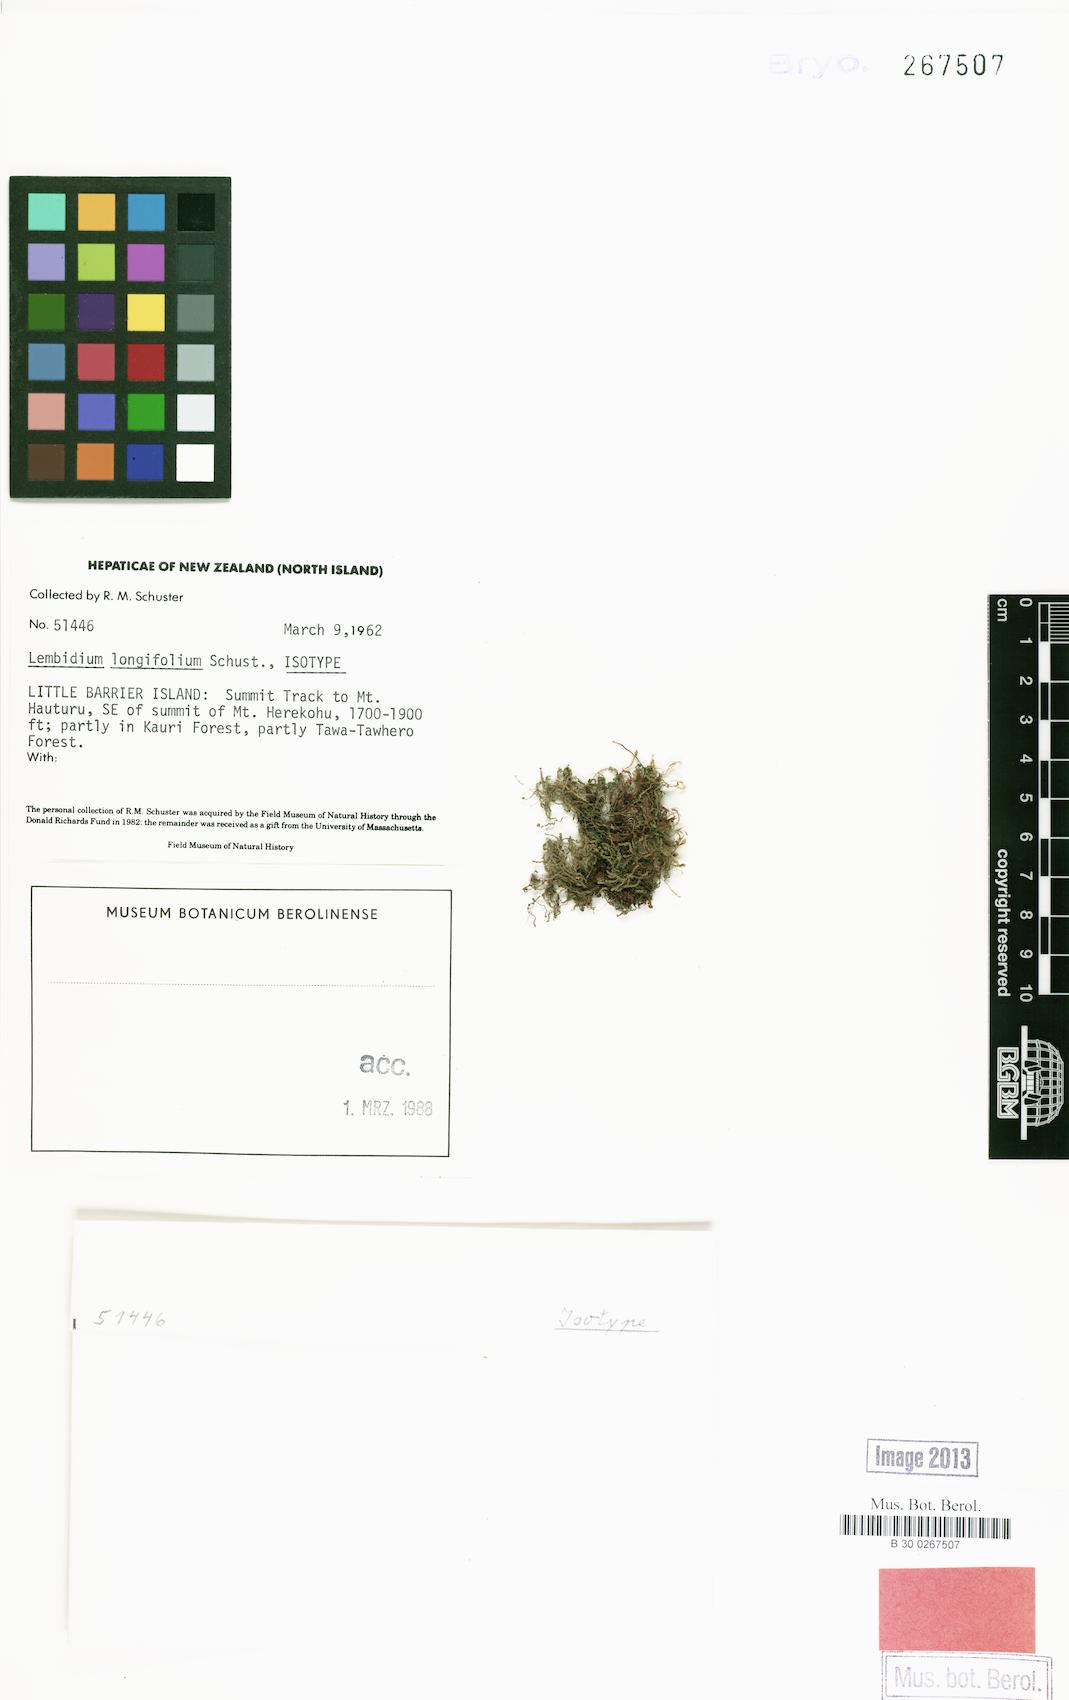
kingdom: Plantae
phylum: Marchantiophyta
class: Jungermanniopsida
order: Jungermanniales
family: Lepidoziaceae
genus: Lembidium
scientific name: Lembidium longifolium
